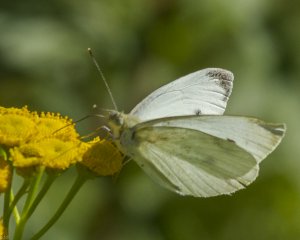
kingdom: Animalia
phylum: Arthropoda
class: Insecta
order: Lepidoptera
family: Pieridae
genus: Pieris
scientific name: Pieris rapae
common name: Cabbage White
